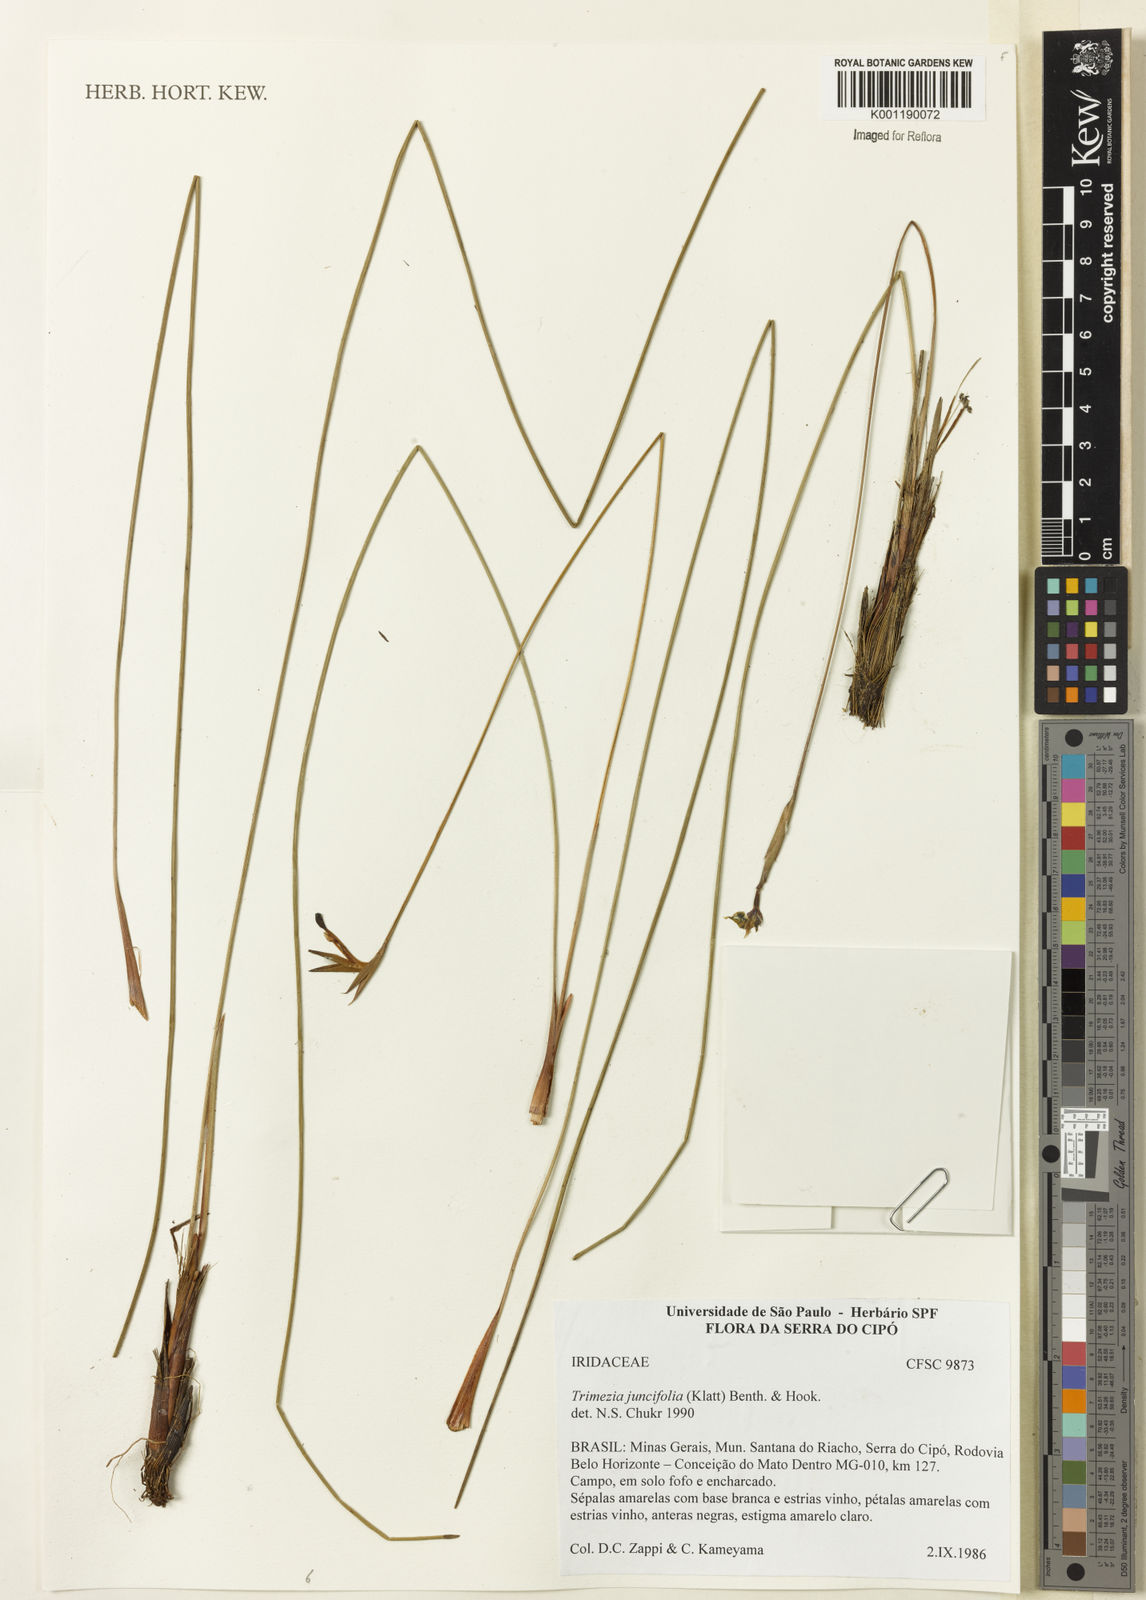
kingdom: Plantae
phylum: Tracheophyta
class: Liliopsida
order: Asparagales
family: Iridaceae
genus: Trimezia
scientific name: Trimezia juncifolia
